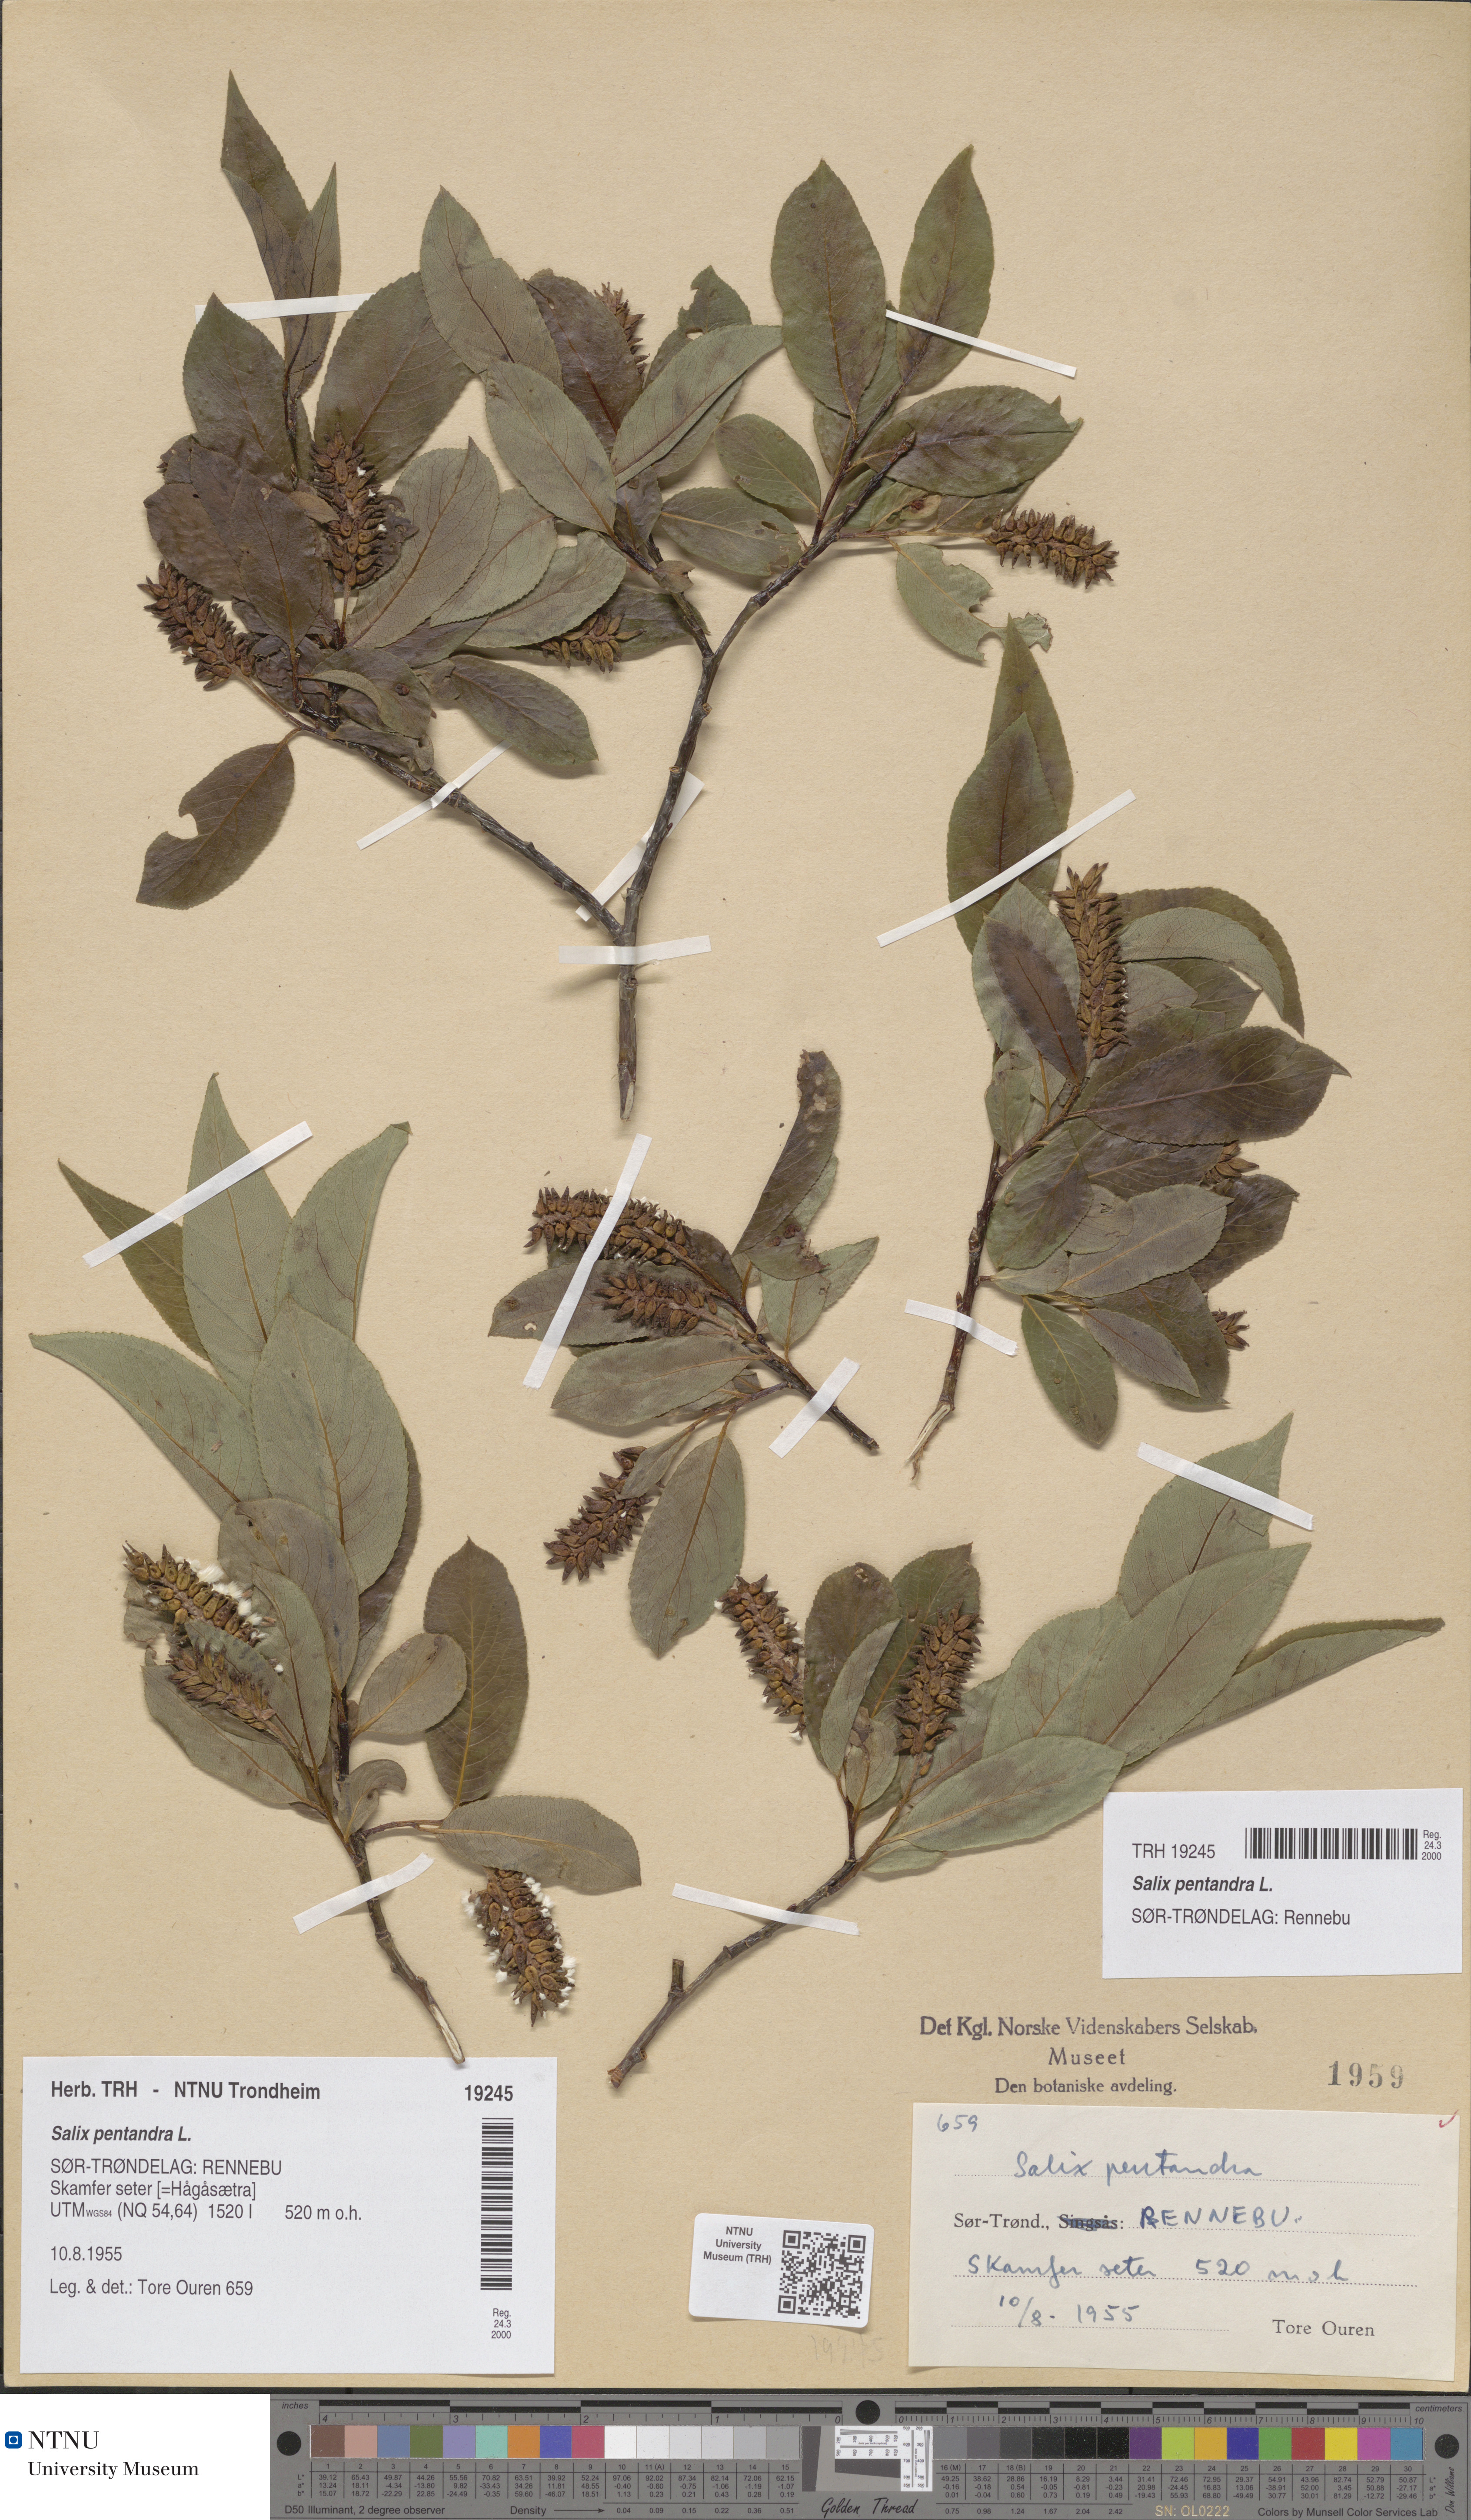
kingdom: Plantae
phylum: Tracheophyta
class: Magnoliopsida
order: Malpighiales
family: Salicaceae
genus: Salix
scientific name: Salix pentandra
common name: Bay willow
